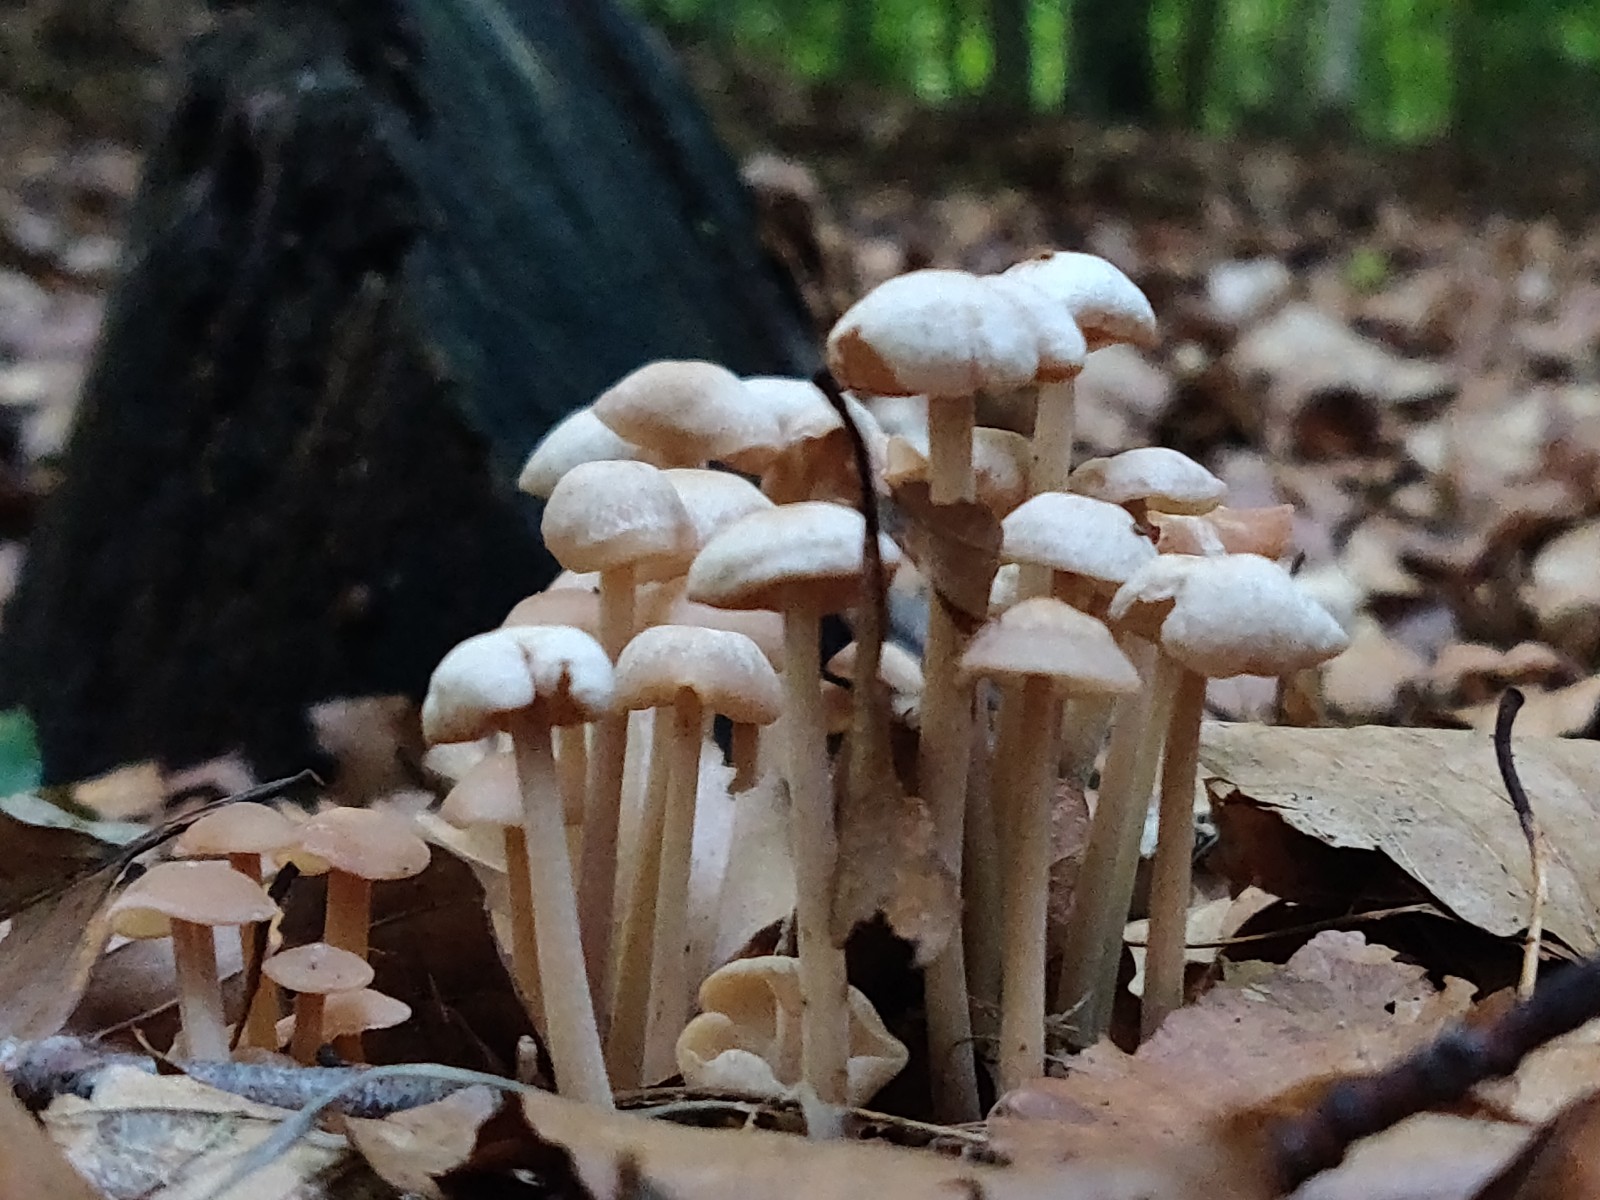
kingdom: Fungi
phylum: Basidiomycota
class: Agaricomycetes
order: Agaricales
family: Omphalotaceae
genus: Collybiopsis
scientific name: Collybiopsis confluens
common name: knippe-fladhat
